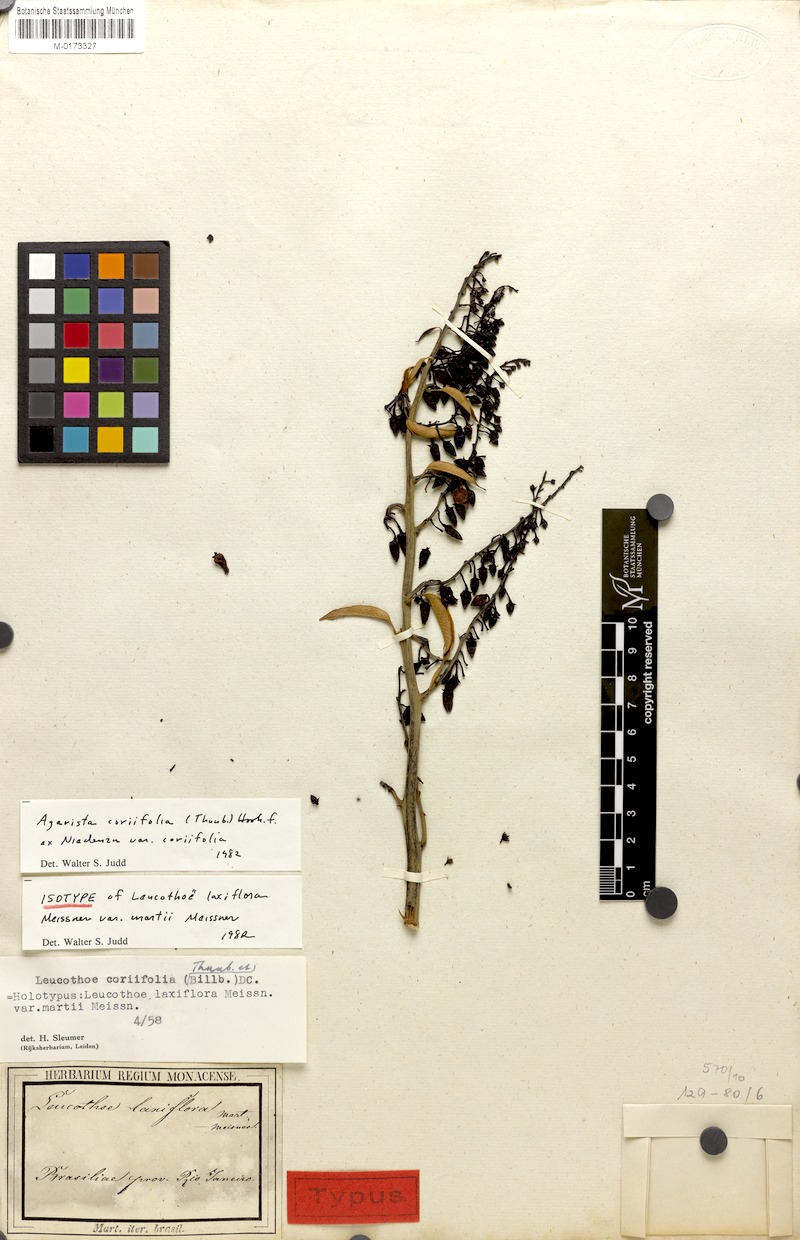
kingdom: Plantae
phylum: Tracheophyta
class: Magnoliopsida
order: Ericales
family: Ericaceae
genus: Agarista
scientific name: Agarista coriifolia
